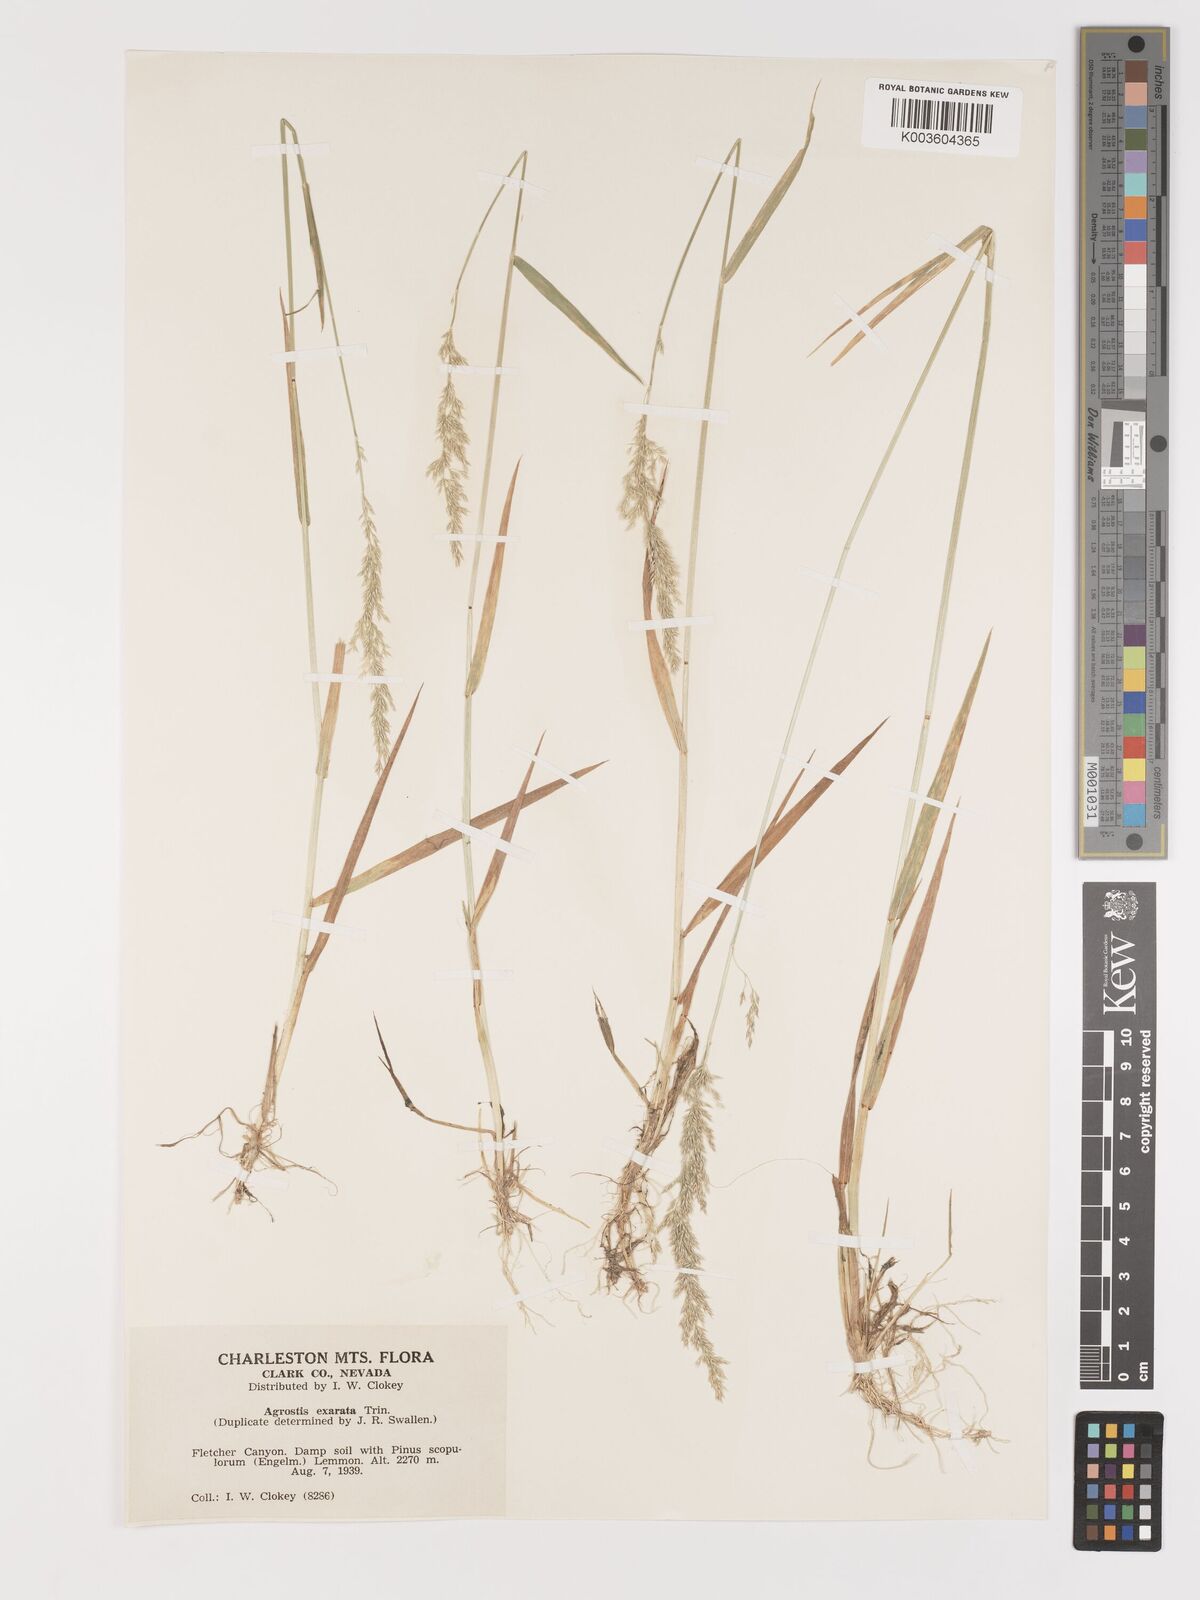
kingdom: Plantae
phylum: Tracheophyta
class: Liliopsida
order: Poales
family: Poaceae
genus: Agrostis
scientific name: Agrostis exarata
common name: Spike bent
